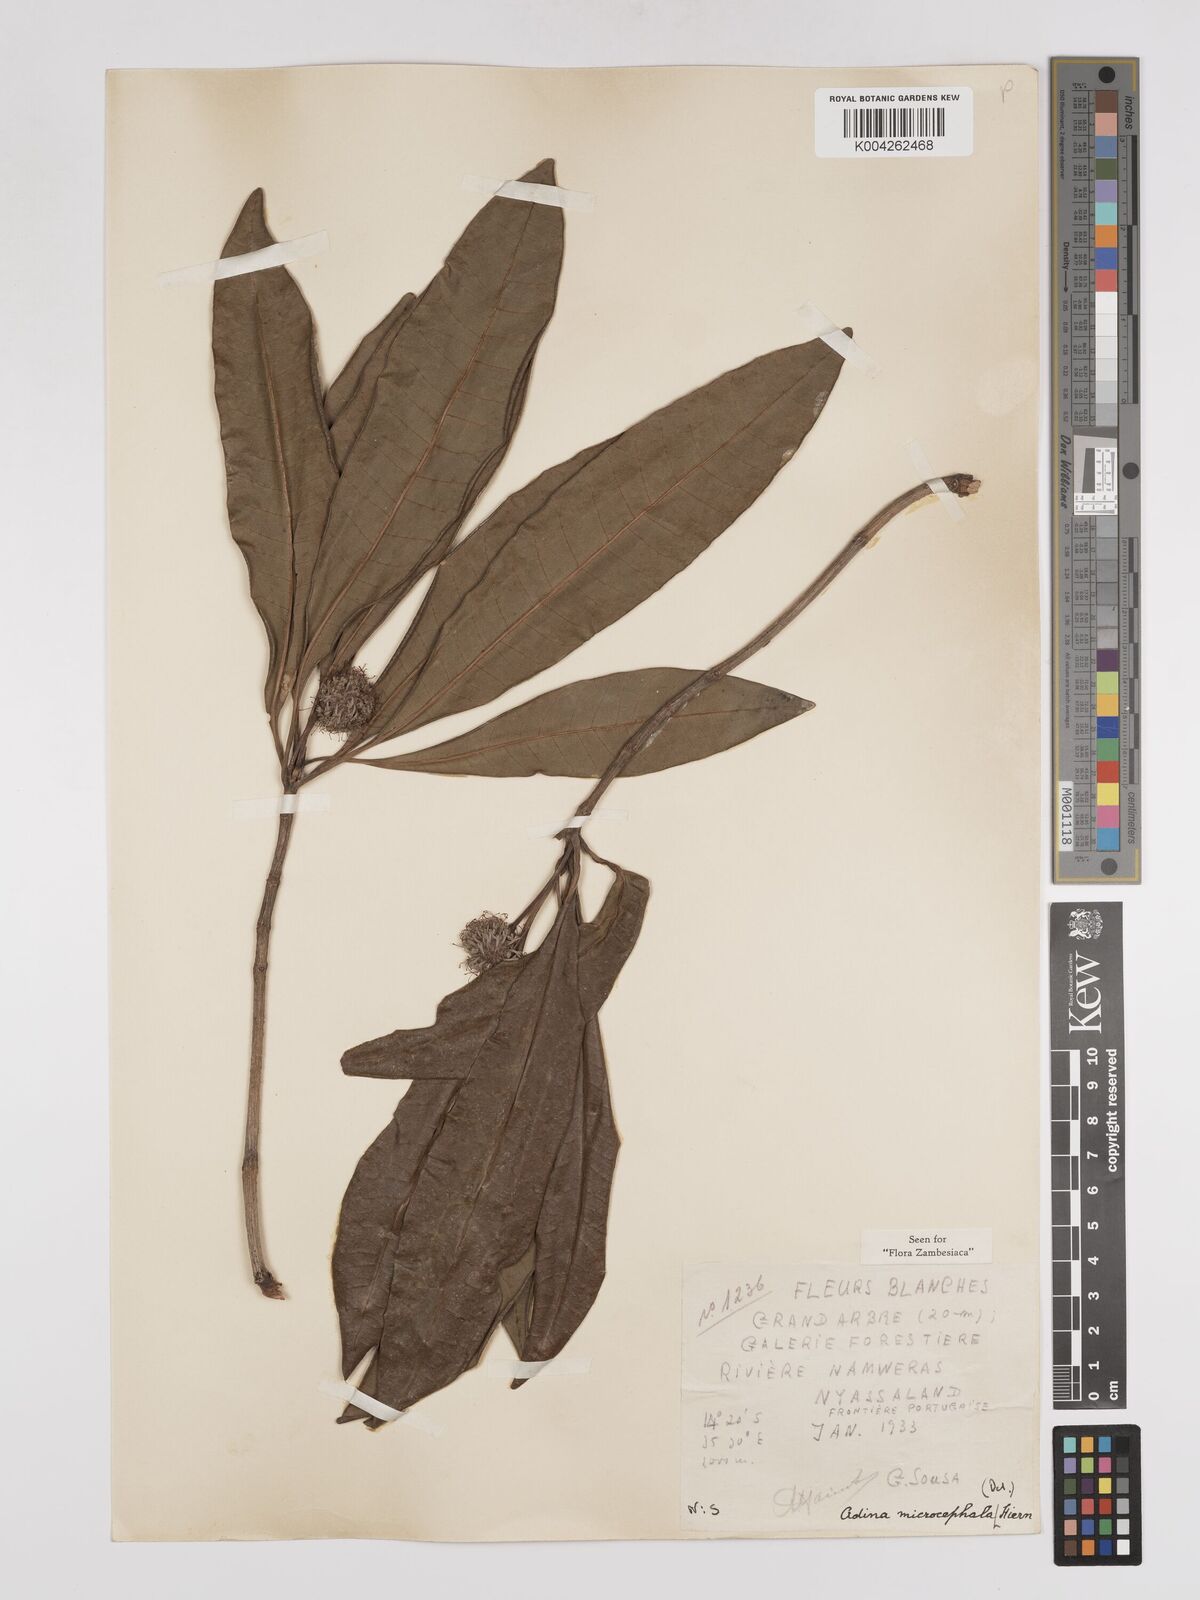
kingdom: Plantae
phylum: Tracheophyta
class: Magnoliopsida
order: Gentianales
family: Rubiaceae
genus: Breonadia
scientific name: Breonadia salicina
